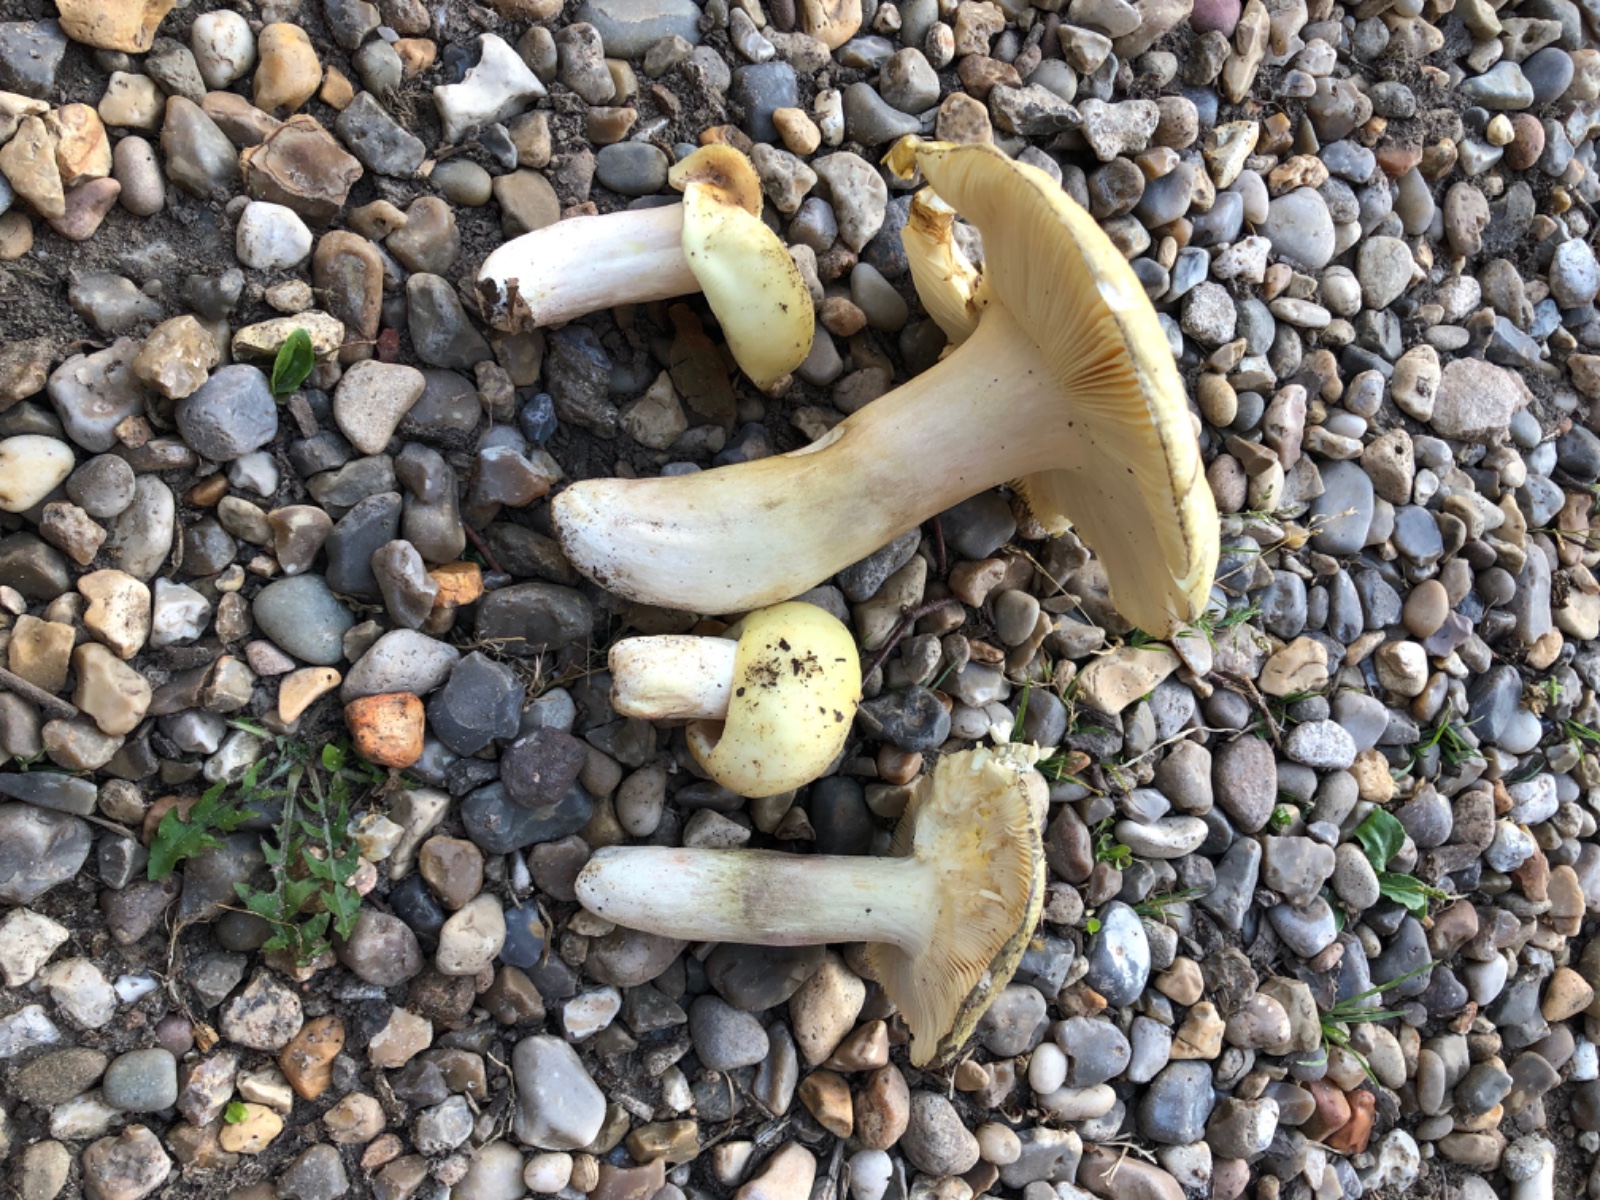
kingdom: Fungi
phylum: Basidiomycota
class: Agaricomycetes
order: Russulales
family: Russulaceae
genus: Russula
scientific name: Russula violeipes
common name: ferskengul skørhat
